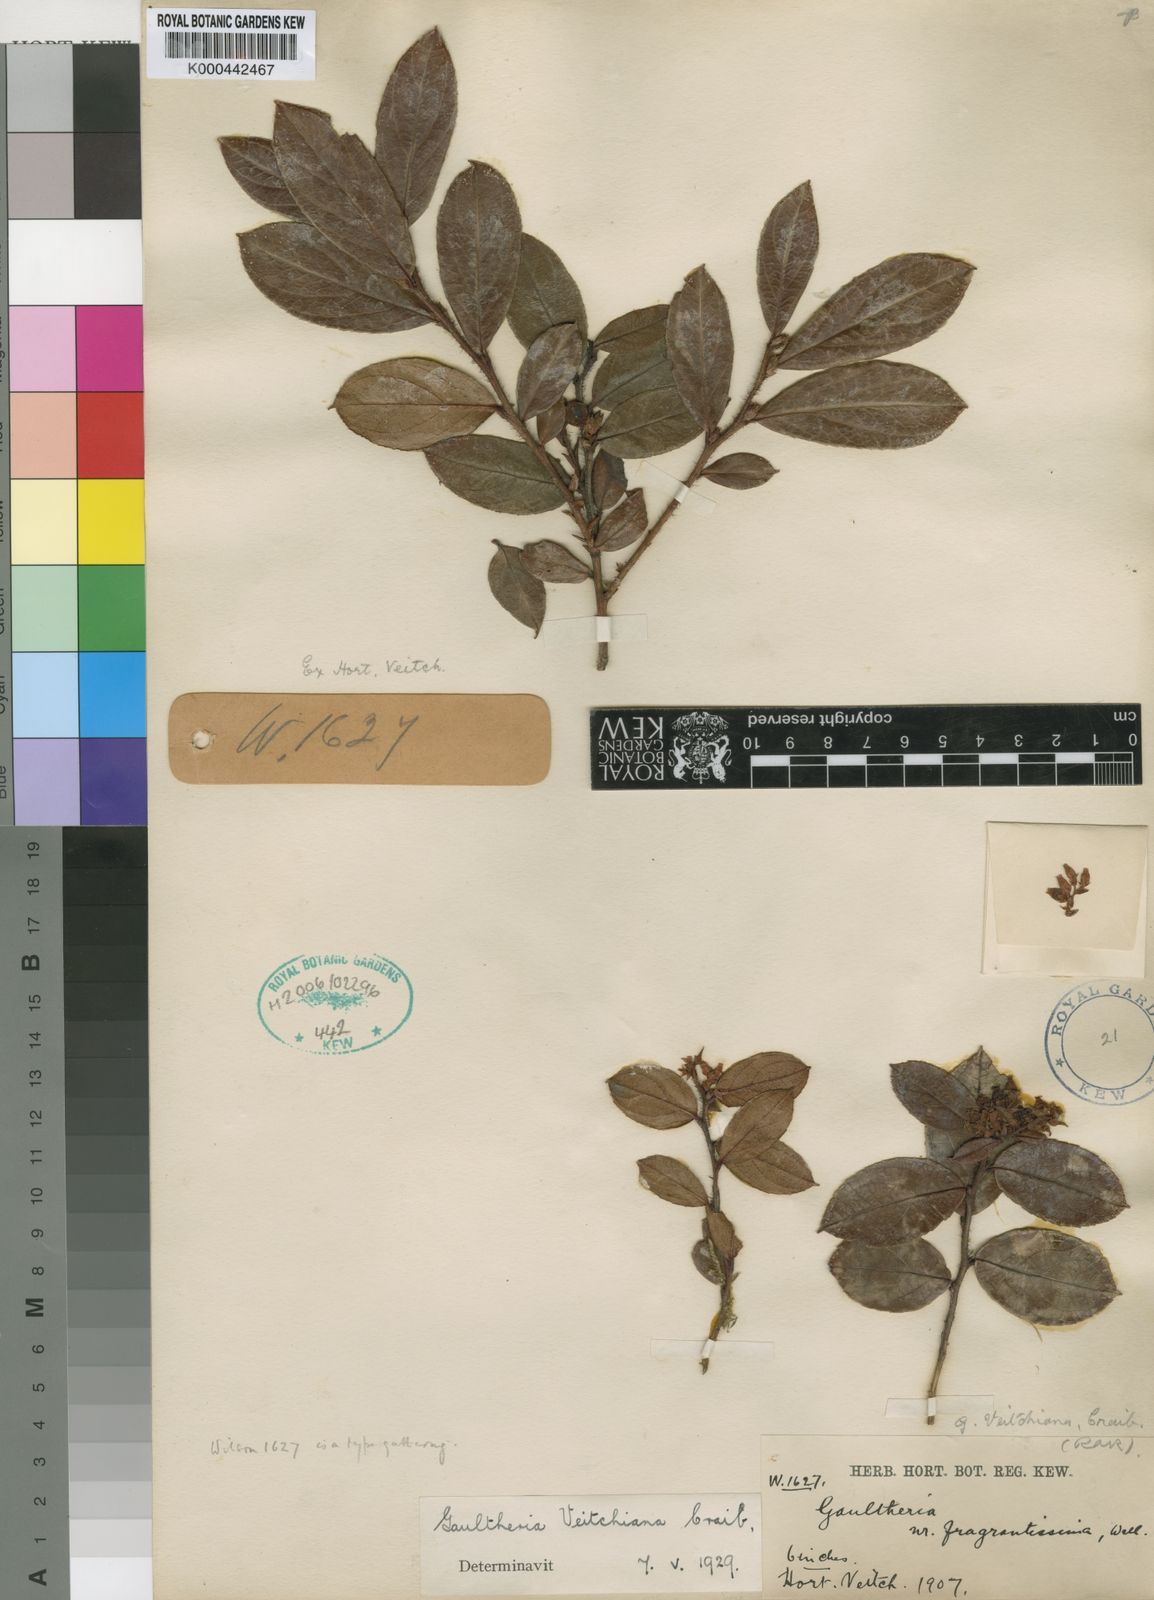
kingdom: Plantae
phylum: Tracheophyta
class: Magnoliopsida
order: Ericales
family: Ericaceae
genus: Gaultheria
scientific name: Gaultheria hookeri
